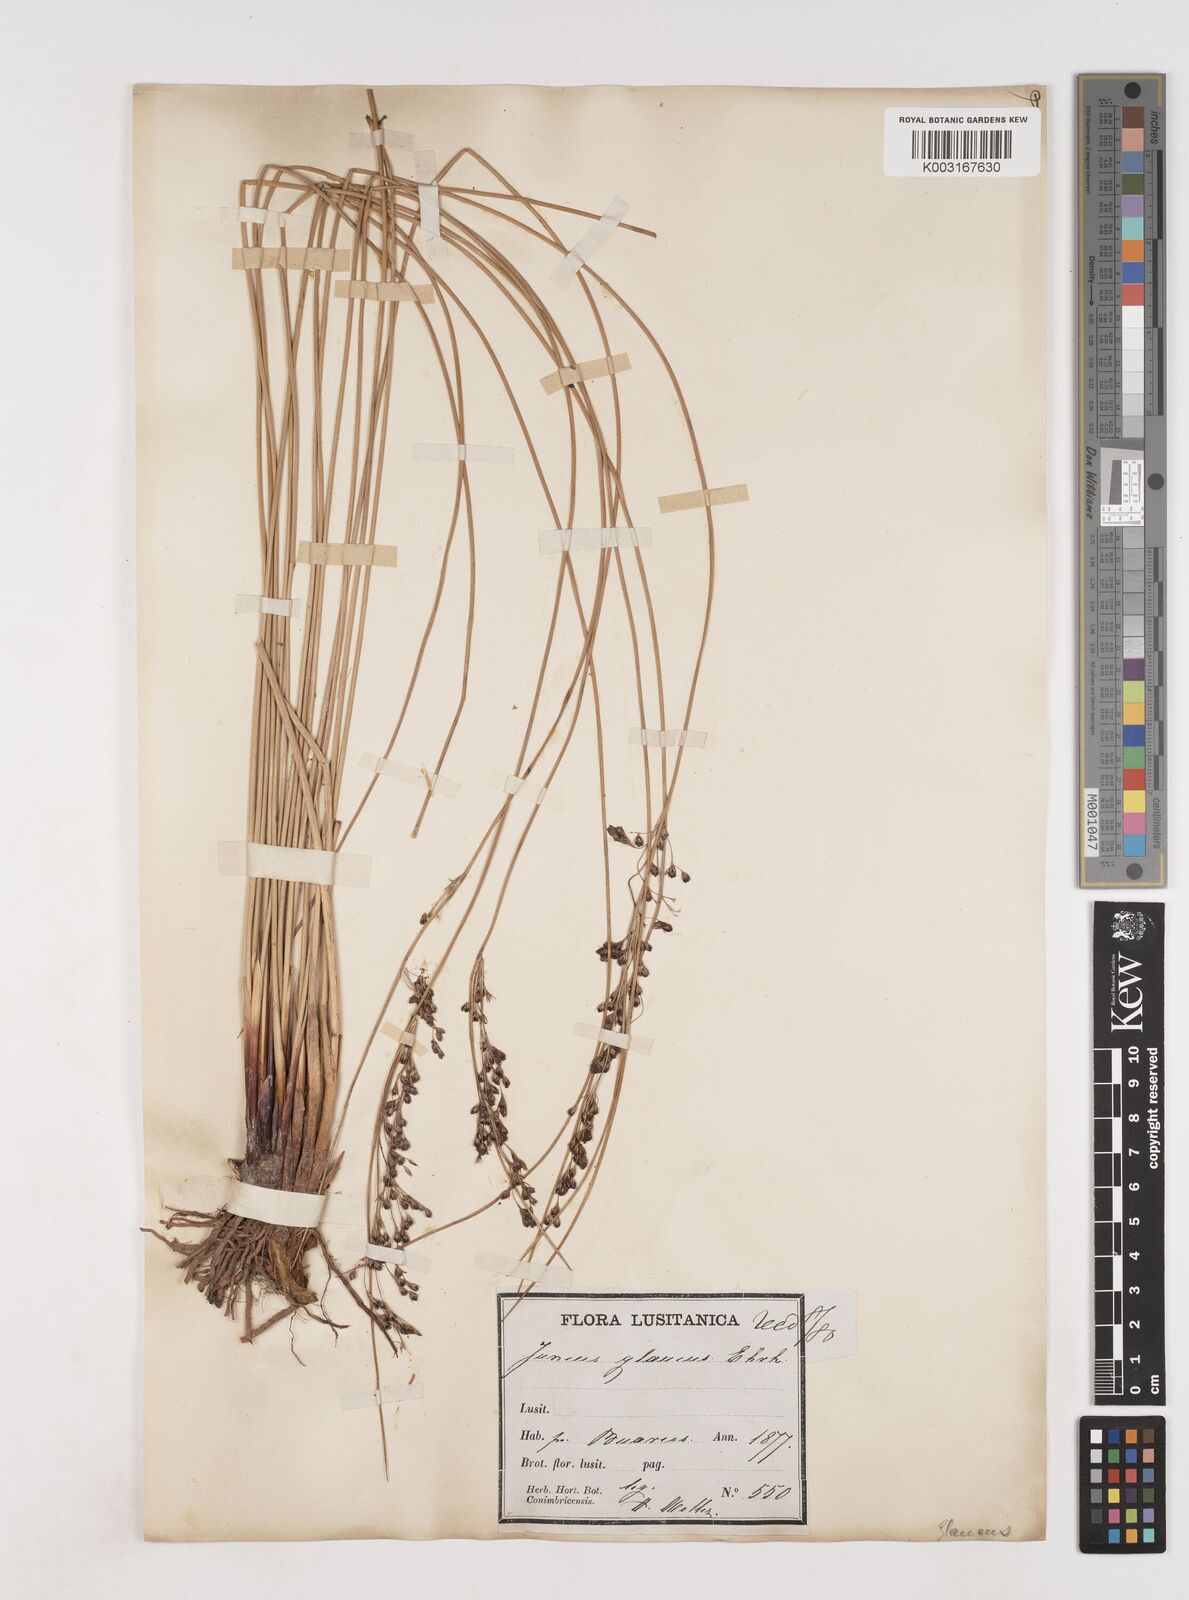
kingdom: Plantae
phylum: Tracheophyta
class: Liliopsida
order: Poales
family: Juncaceae
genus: Juncus
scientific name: Juncus inflexus
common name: Hard rush
